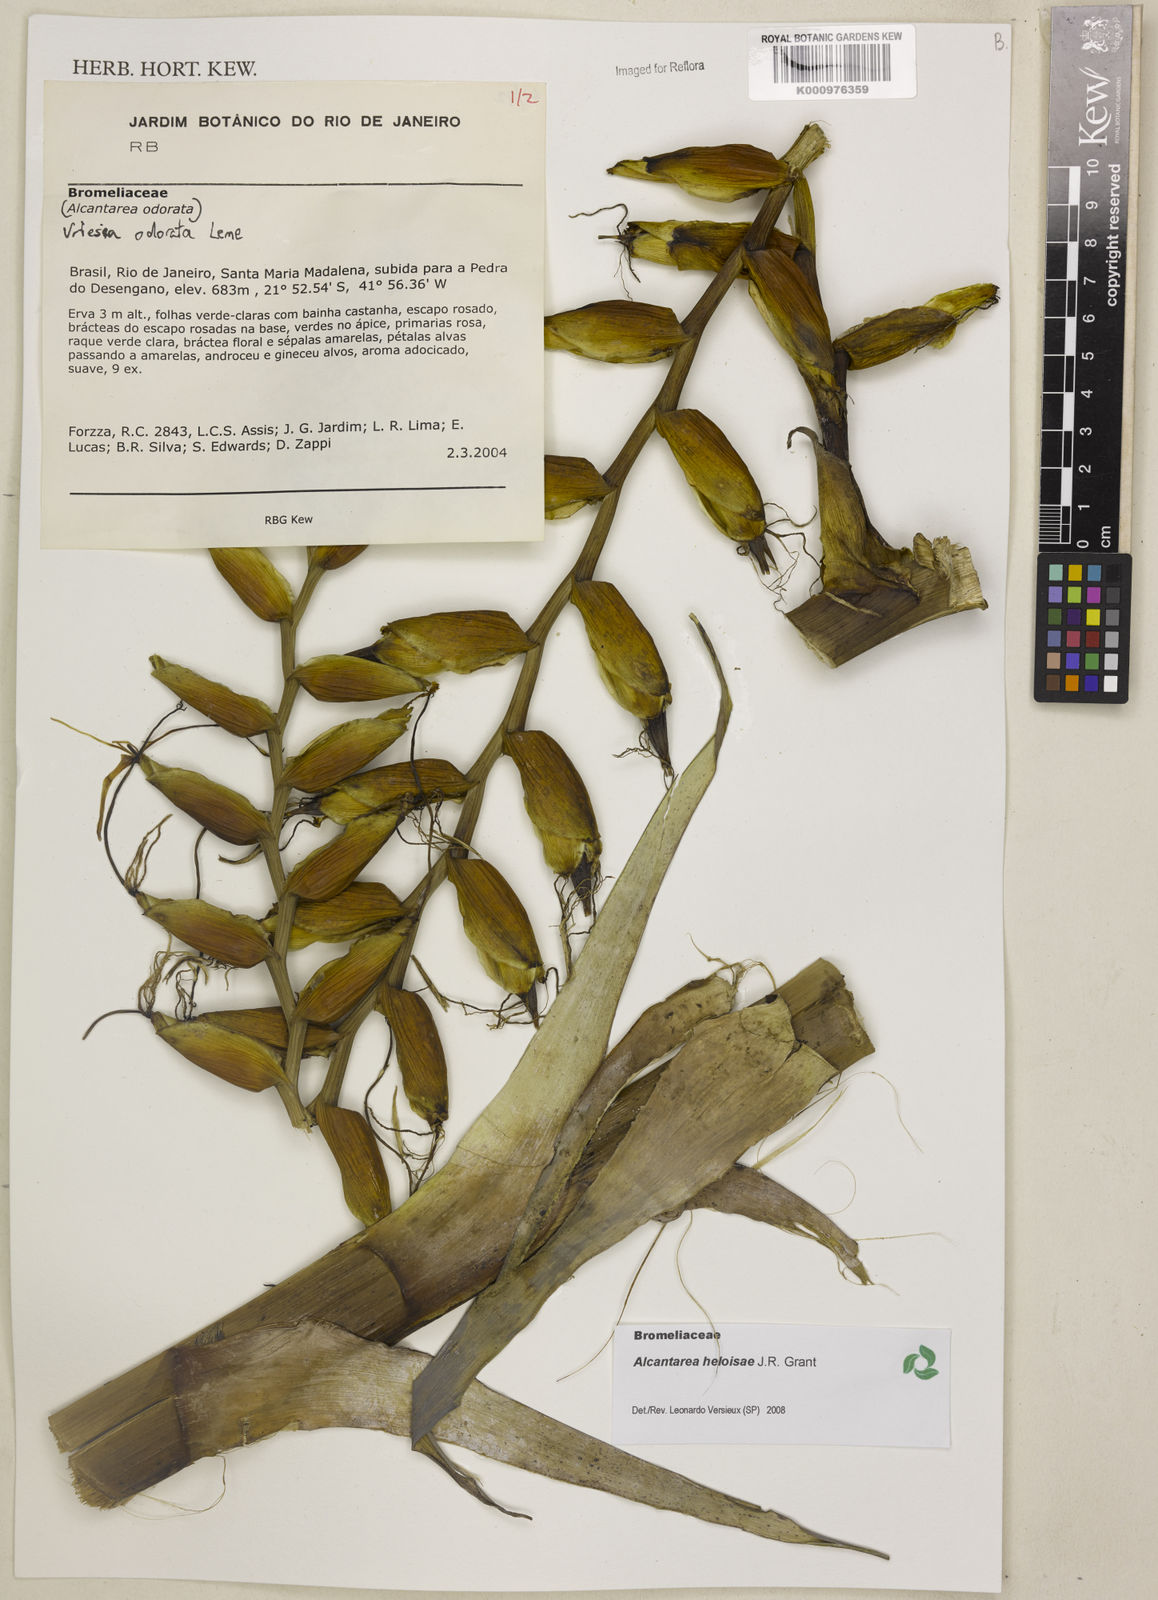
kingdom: Plantae
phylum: Tracheophyta
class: Liliopsida
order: Poales
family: Bromeliaceae
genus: Vriesea
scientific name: Vriesea
